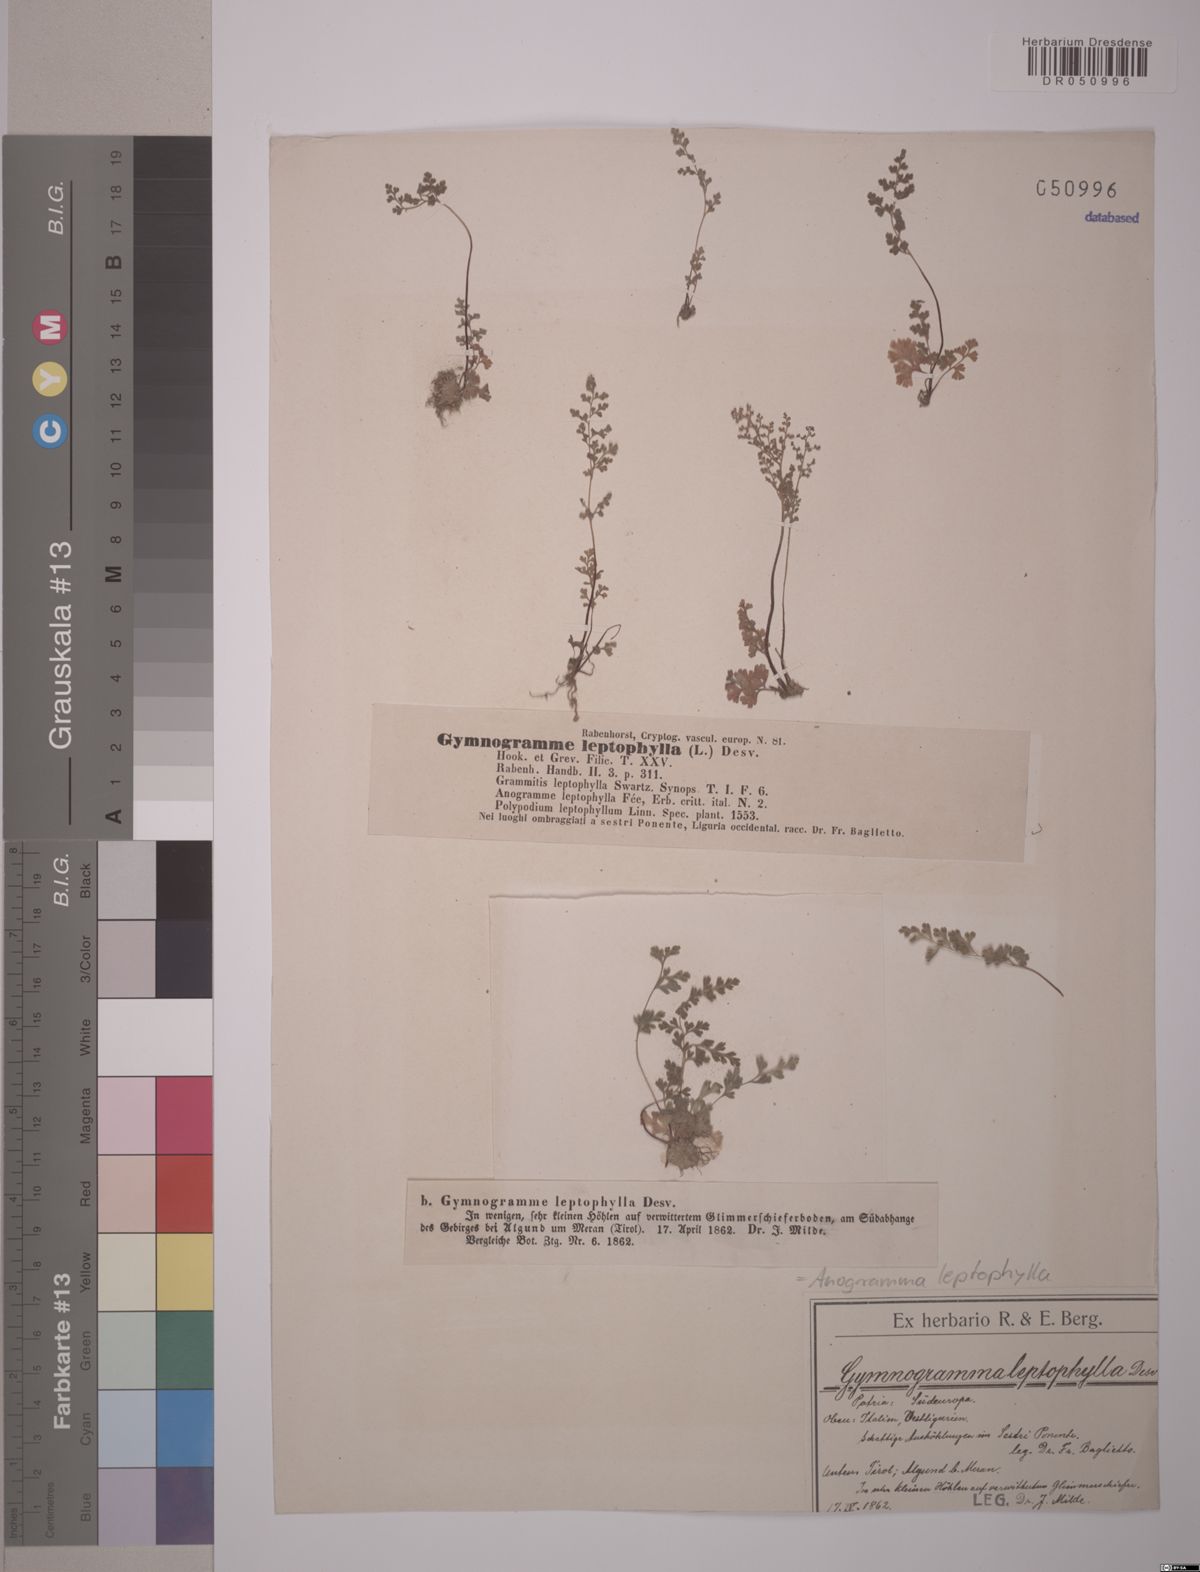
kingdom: Plantae
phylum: Tracheophyta
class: Polypodiopsida
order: Polypodiales
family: Pteridaceae
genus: Anogramma
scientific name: Anogramma leptophylla
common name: Jersey fern
